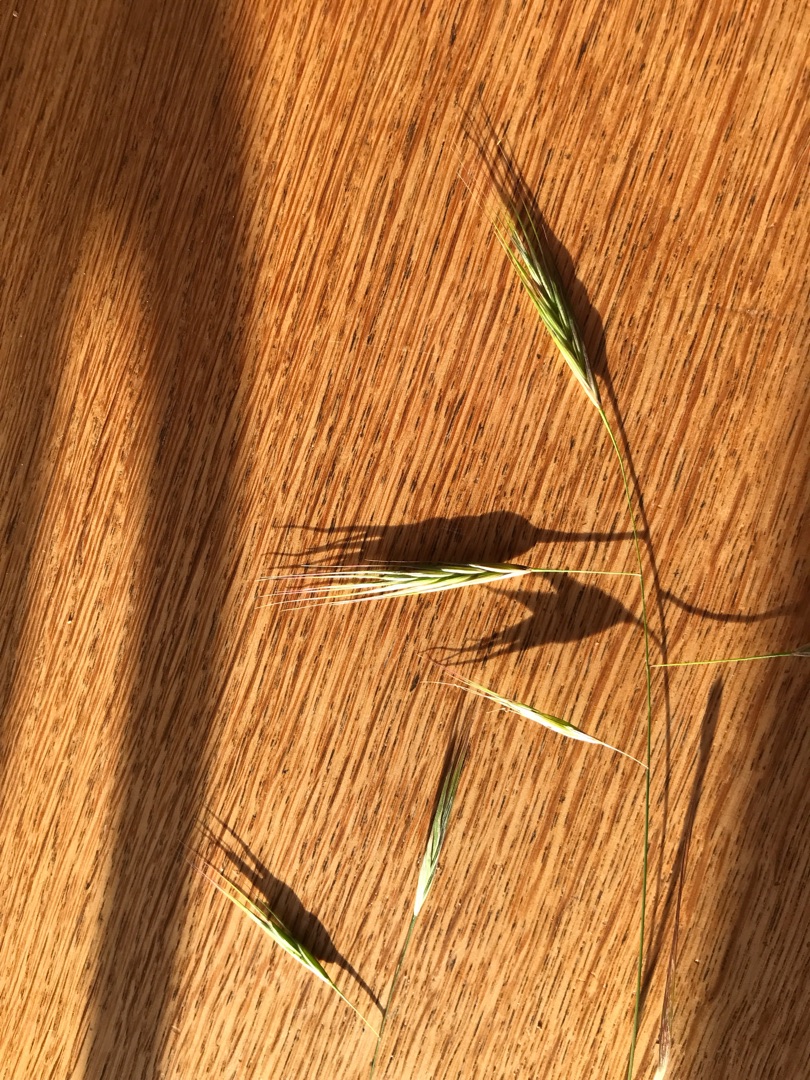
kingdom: Plantae
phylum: Tracheophyta
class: Liliopsida
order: Poales
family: Poaceae
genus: Bromus
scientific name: Bromus sterilis
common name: Gold hejre
